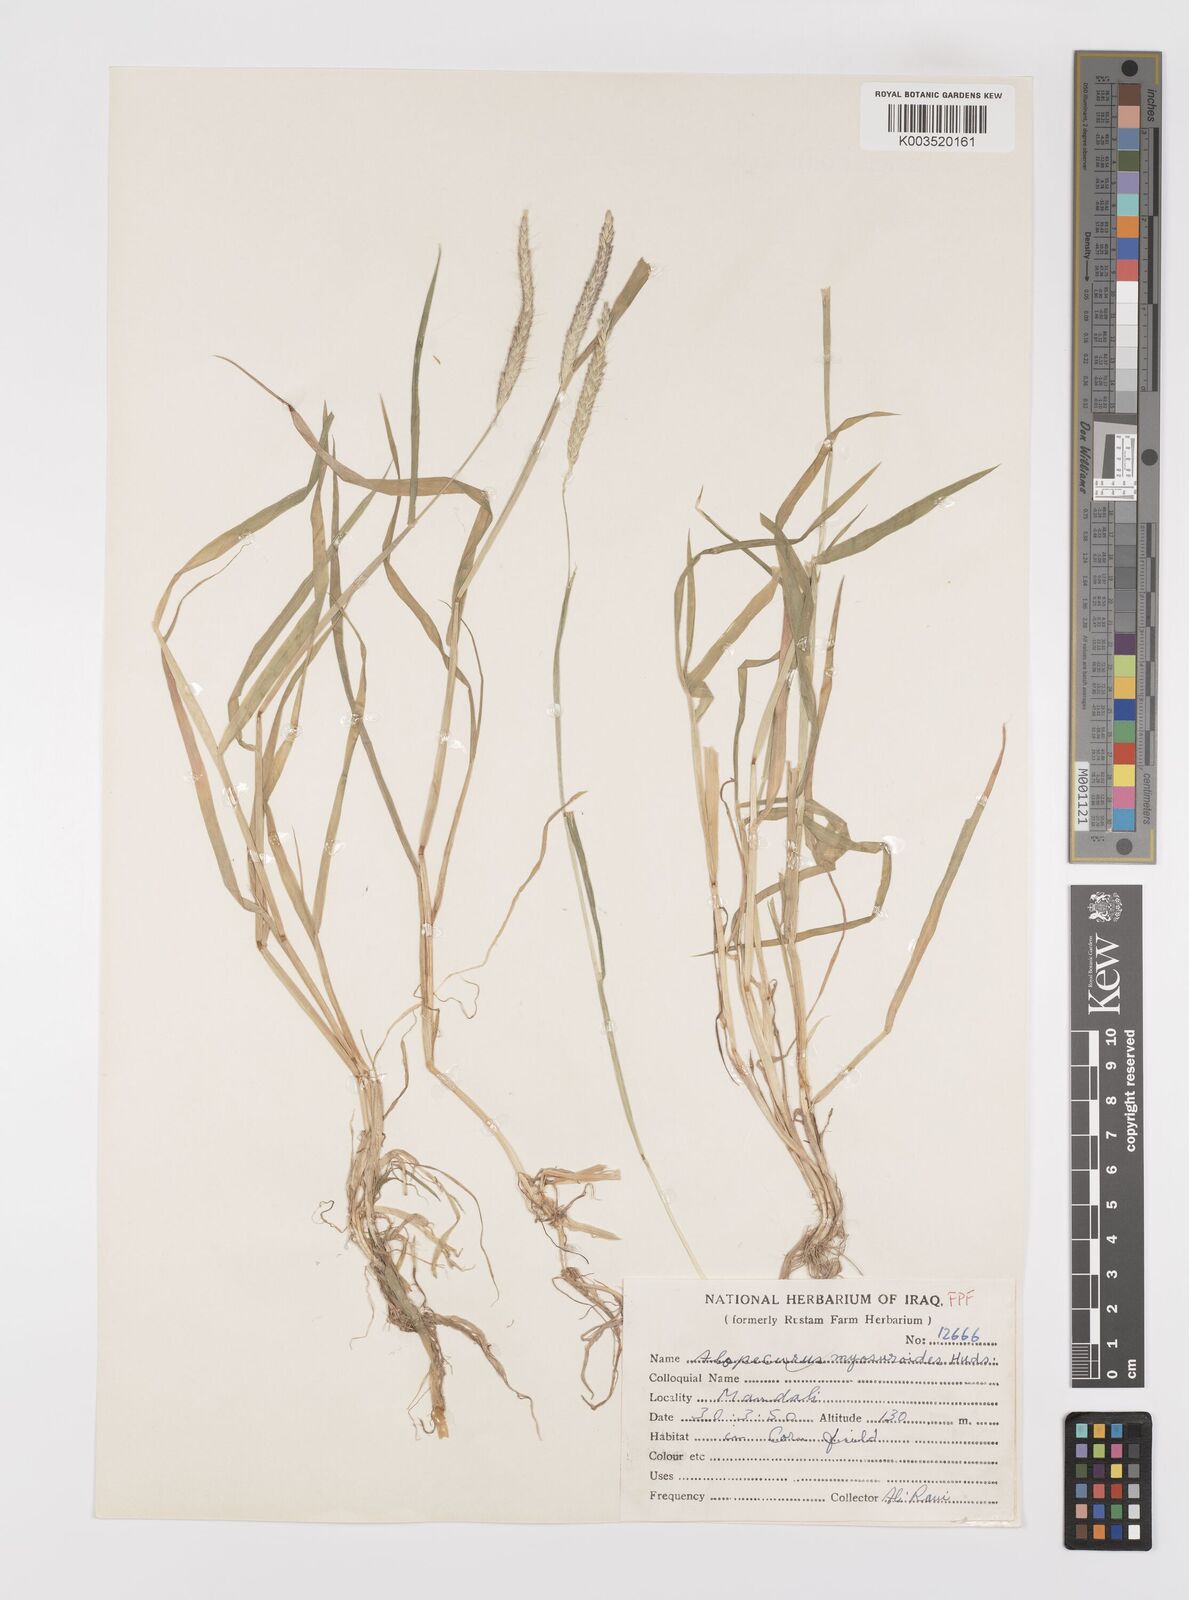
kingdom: Plantae
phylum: Tracheophyta
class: Liliopsida
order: Poales
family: Poaceae
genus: Alopecurus
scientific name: Alopecurus myosuroides
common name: Black-grass
